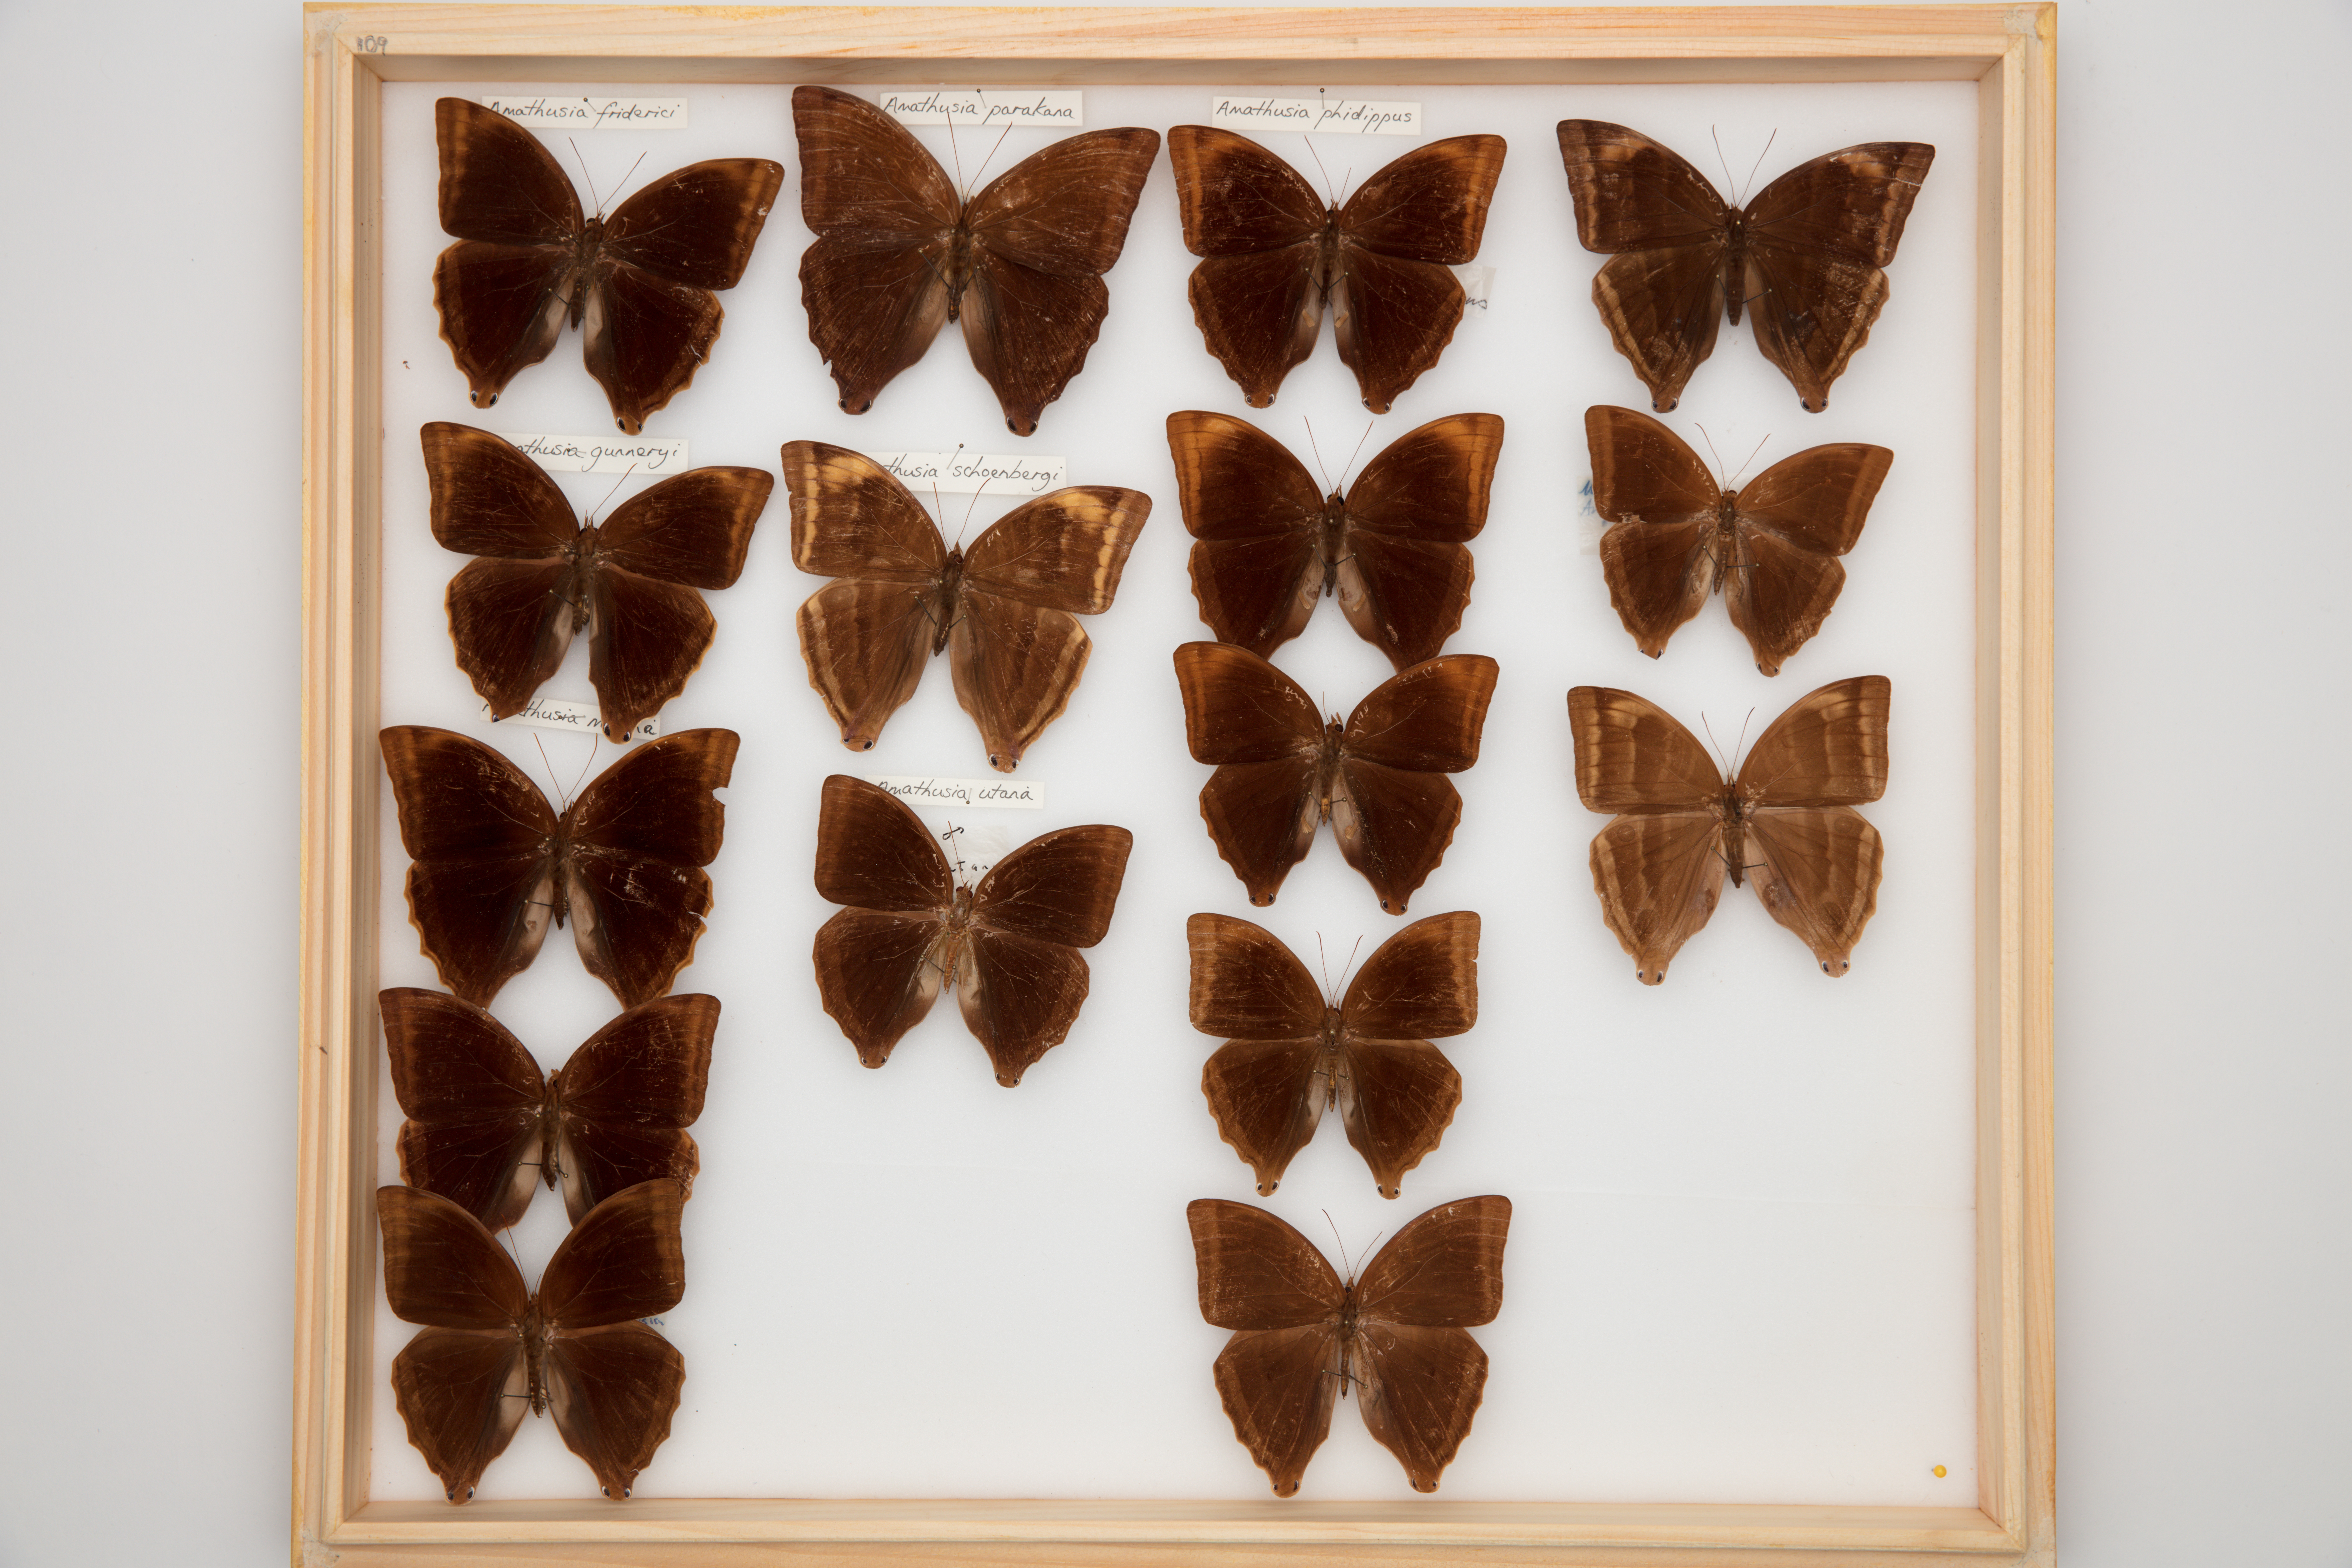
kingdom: Animalia
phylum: Arthropoda
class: Insecta
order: Lepidoptera
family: Nymphalidae
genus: Amathusia
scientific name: Amathusia gunneryi
